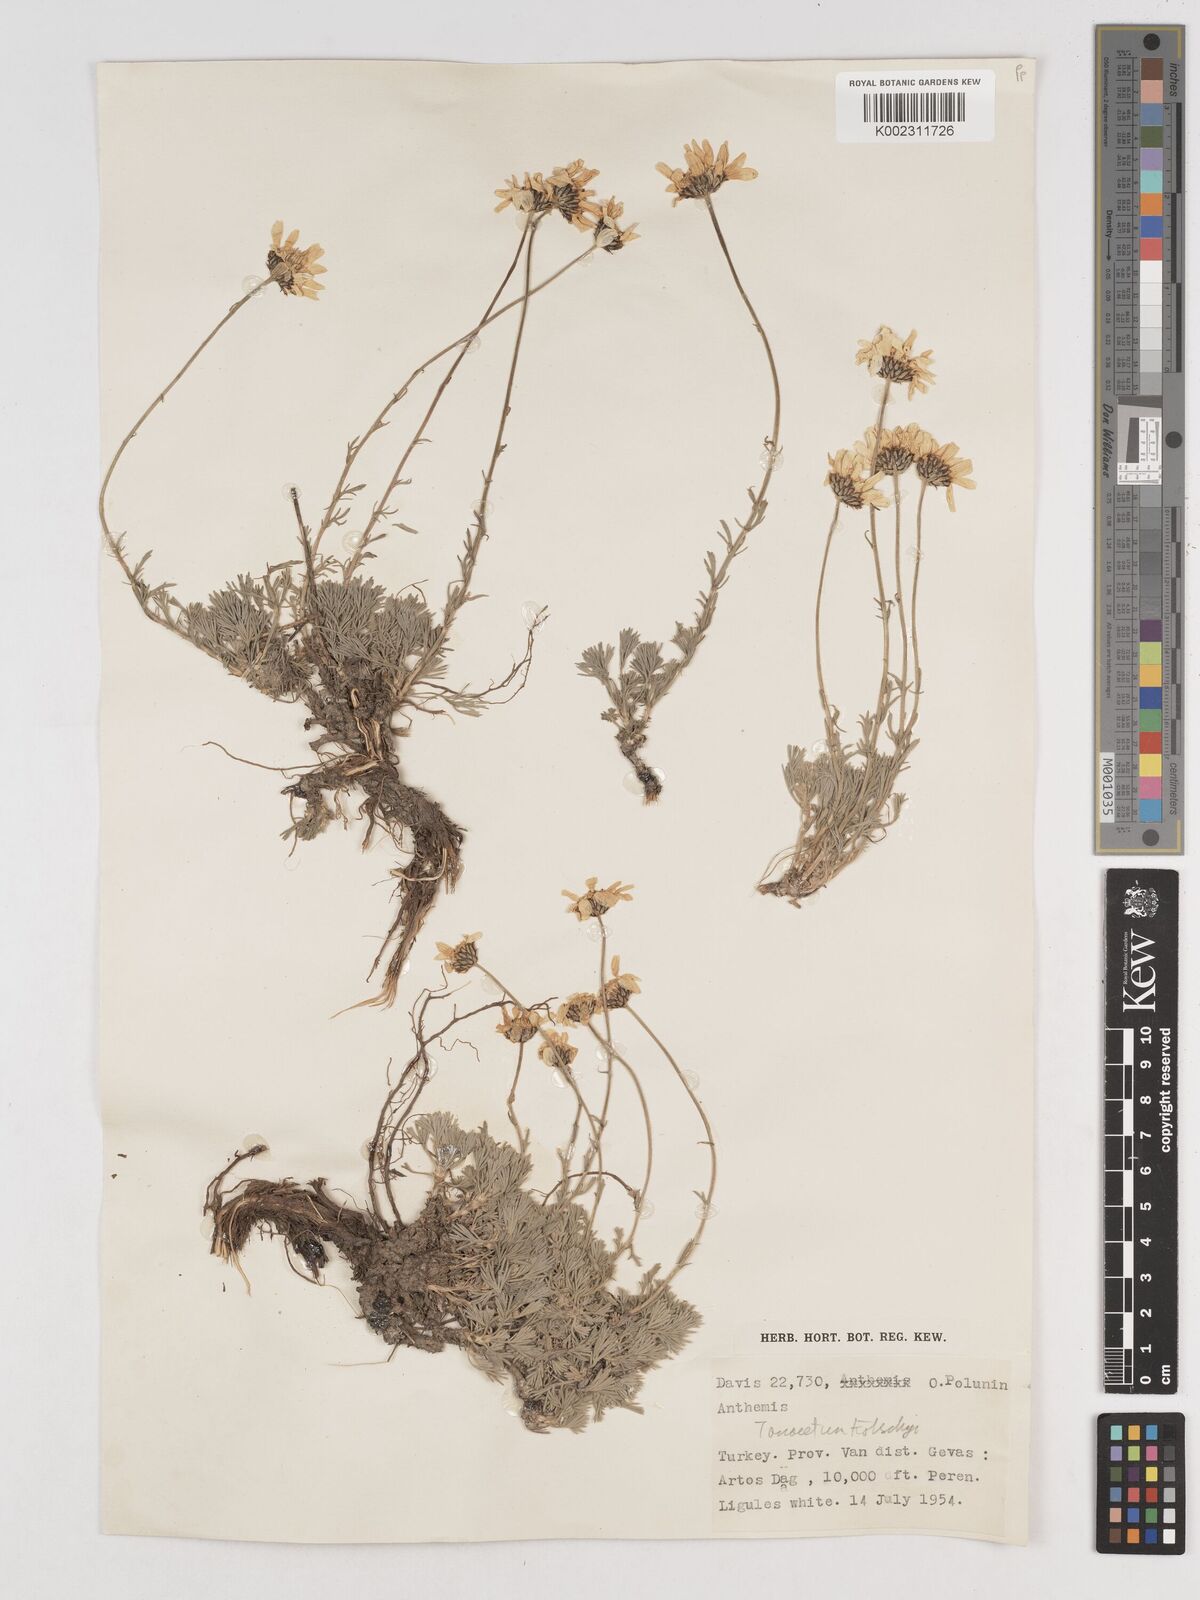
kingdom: Plantae
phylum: Tracheophyta
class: Magnoliopsida
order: Asterales
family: Asteraceae
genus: Tanacetum
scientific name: Tanacetum kotschyi
